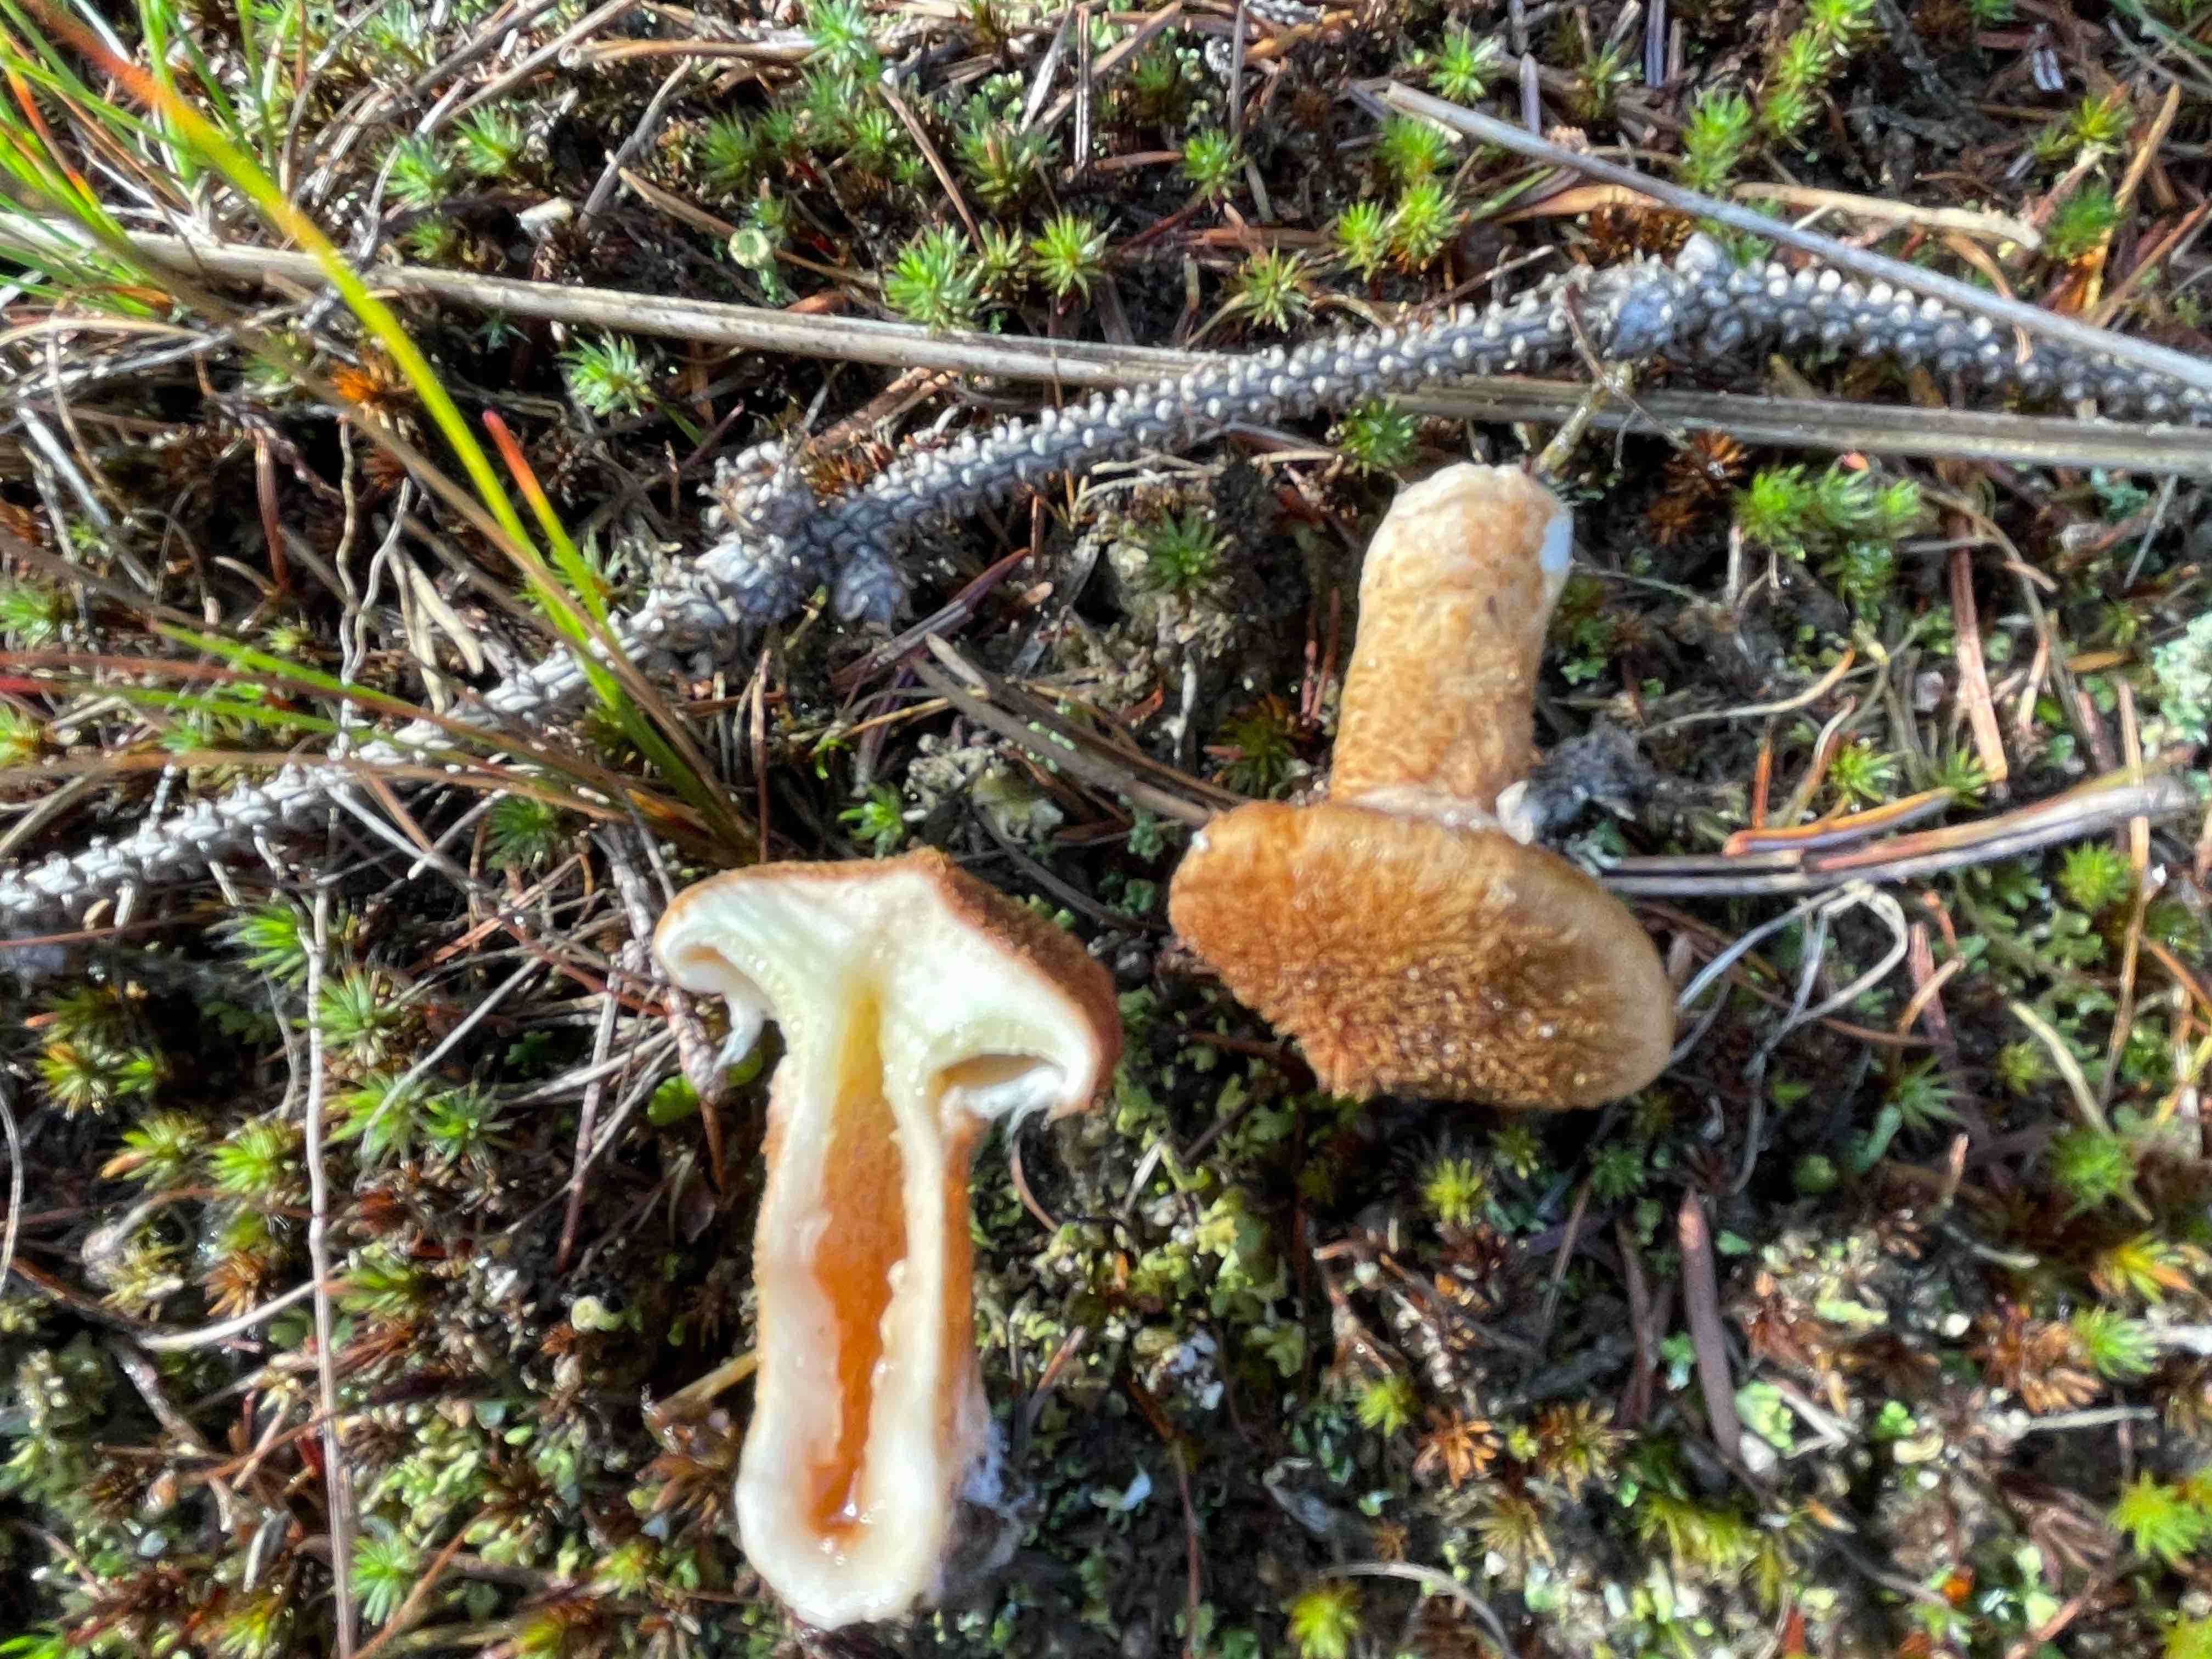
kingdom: Fungi
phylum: Basidiomycota
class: Agaricomycetes
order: Boletales
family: Suillaceae
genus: Suillus
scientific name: Suillus cavipes
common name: hulstokket slimrørhat
